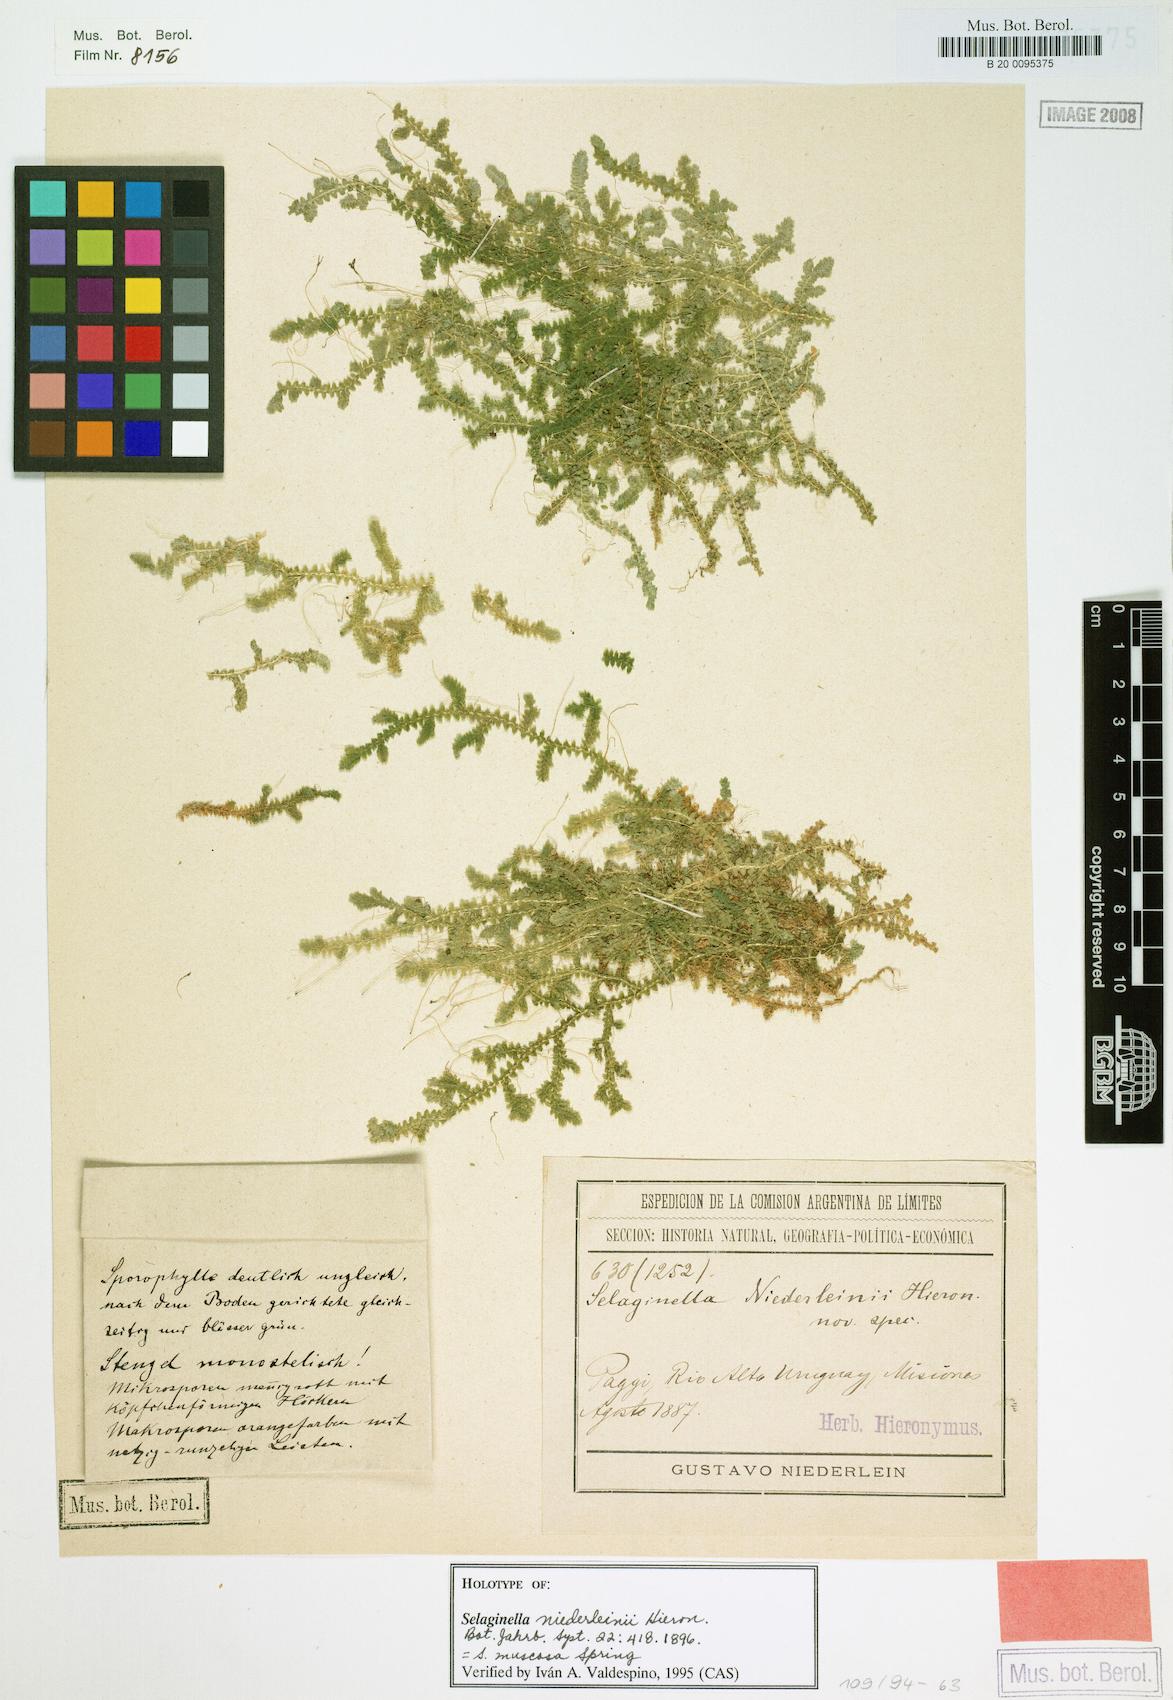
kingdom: Plantae
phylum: Tracheophyta
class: Lycopodiopsida
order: Selaginellales
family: Selaginellaceae
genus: Selaginella
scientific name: Selaginella muscosa
